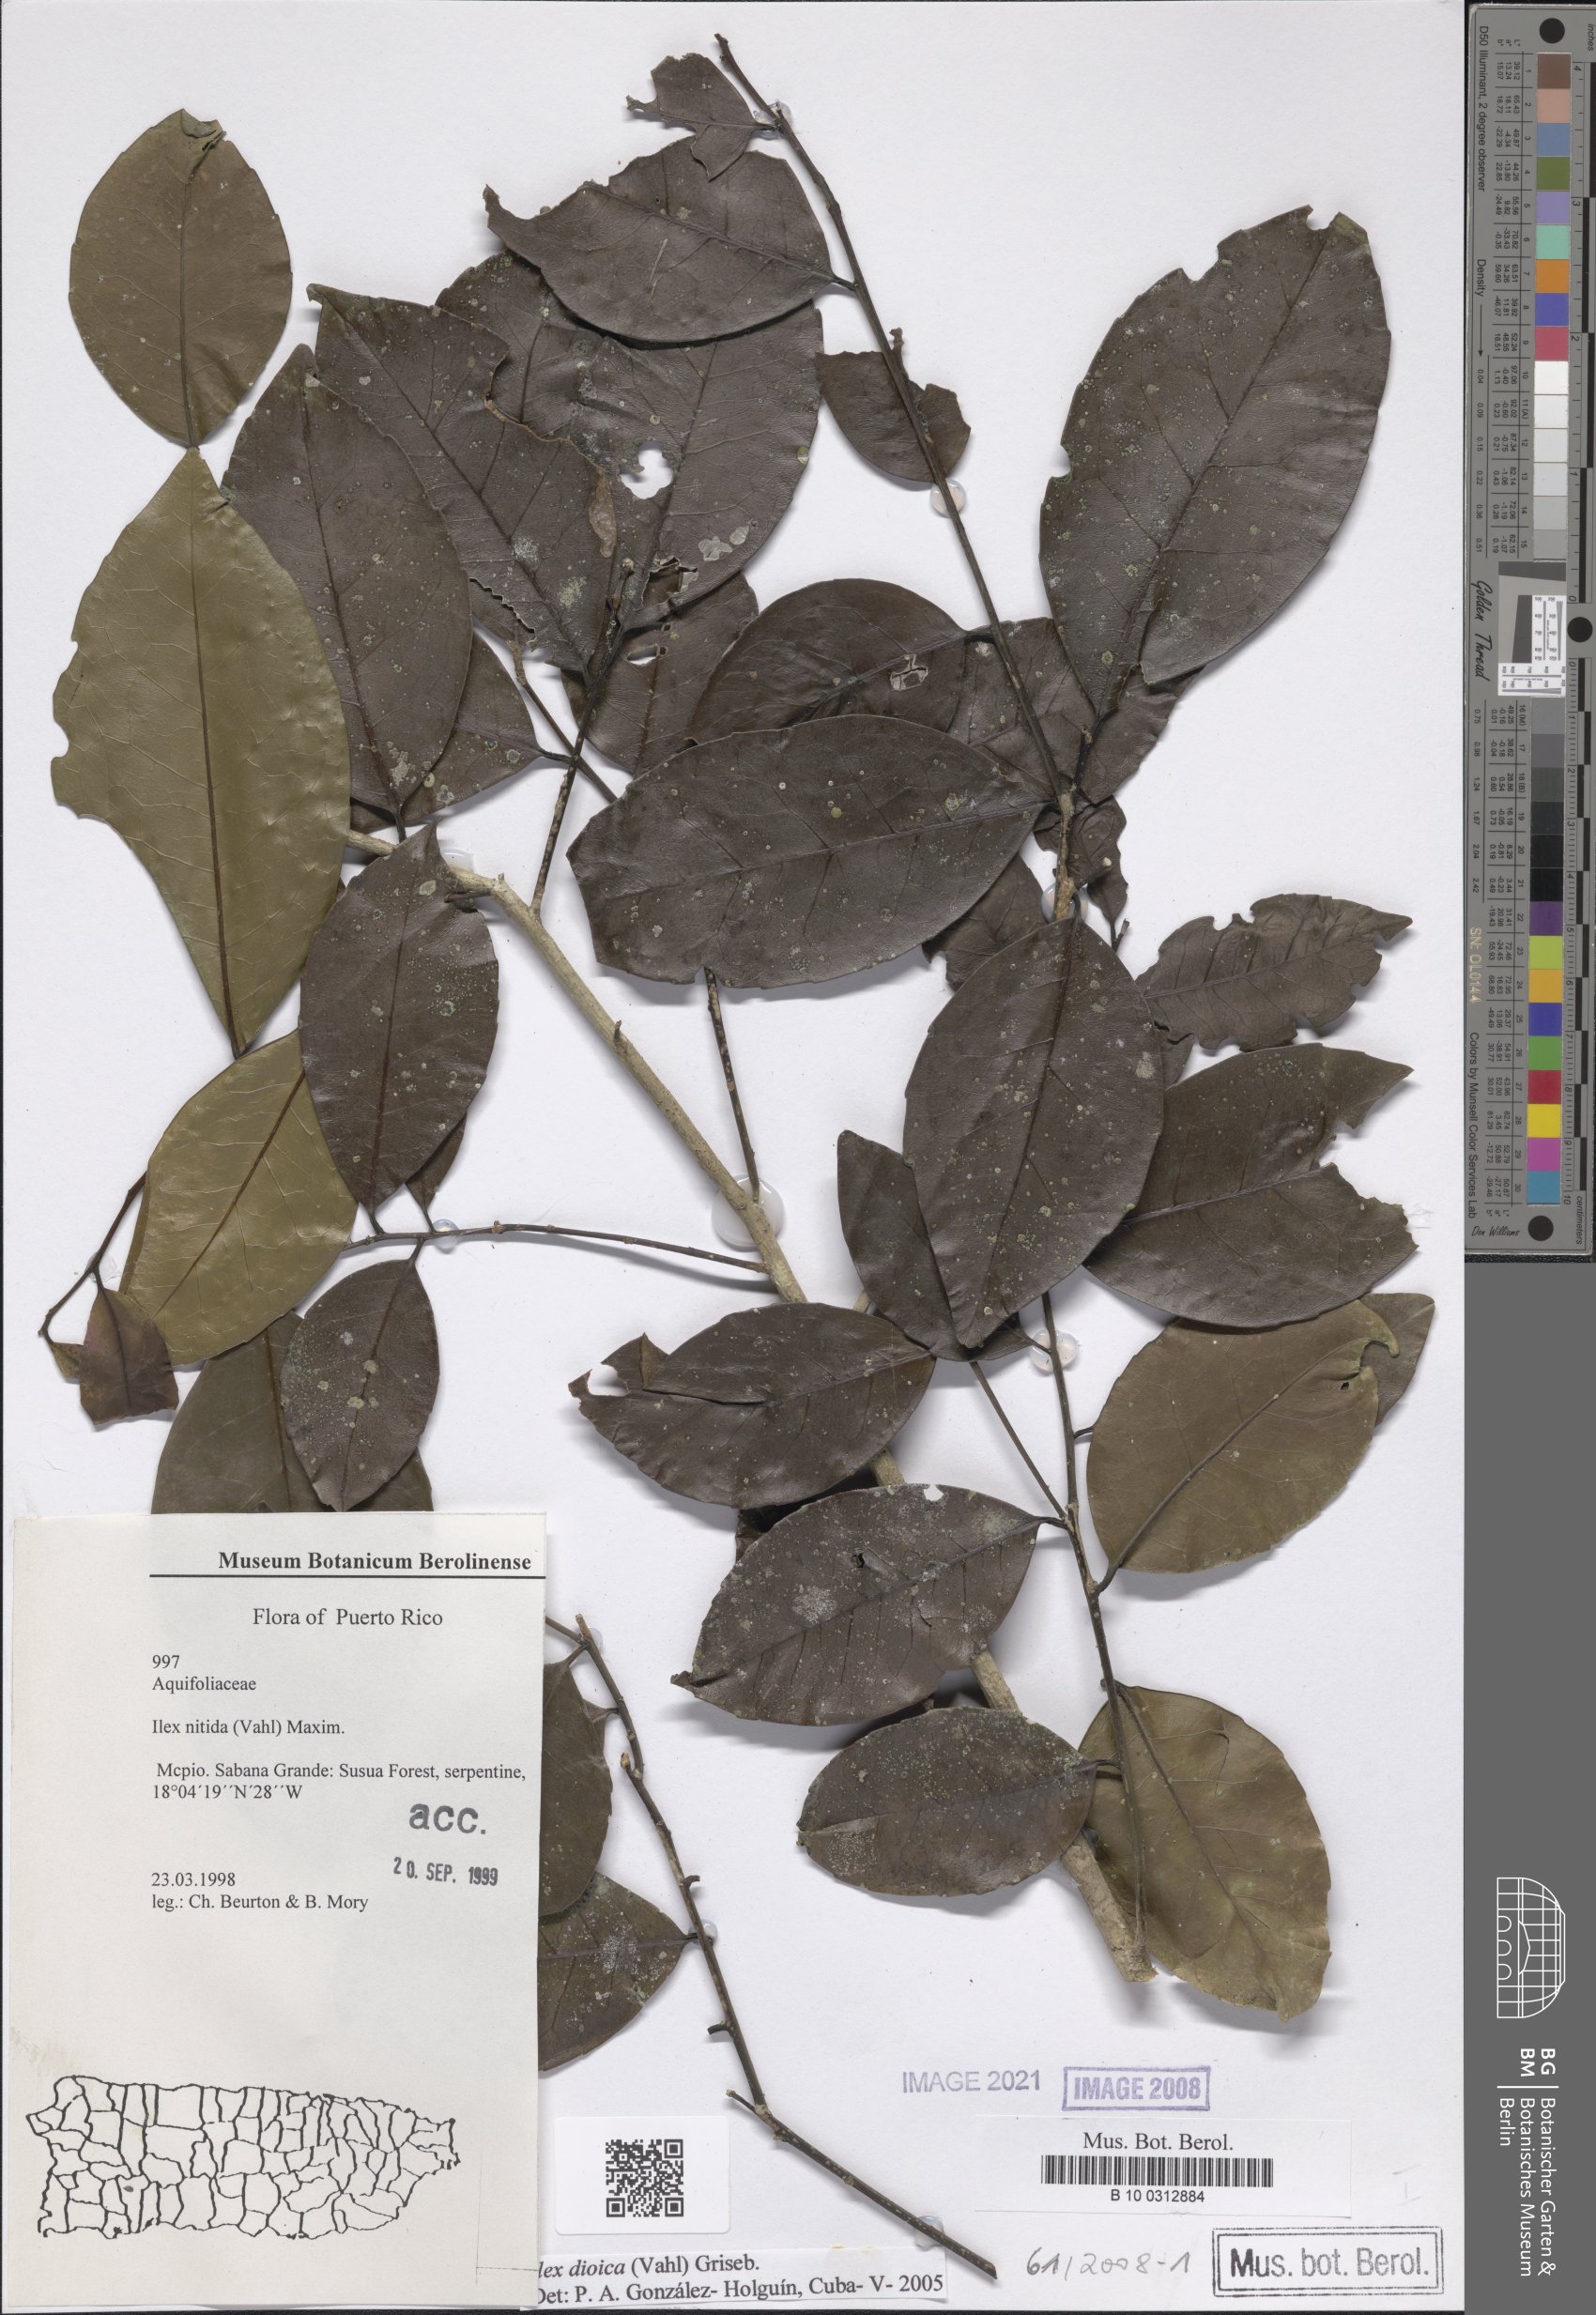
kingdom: Plantae
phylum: Tracheophyta
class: Magnoliopsida
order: Aquifoliales
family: Aquifoliaceae
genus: Ilex
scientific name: Ilex dioica
